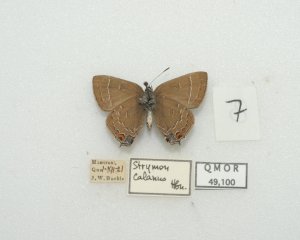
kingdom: Animalia
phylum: Arthropoda
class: Insecta
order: Lepidoptera
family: Lycaenidae
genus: Satyrium
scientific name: Satyrium calanus
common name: Banded Hairstreak
